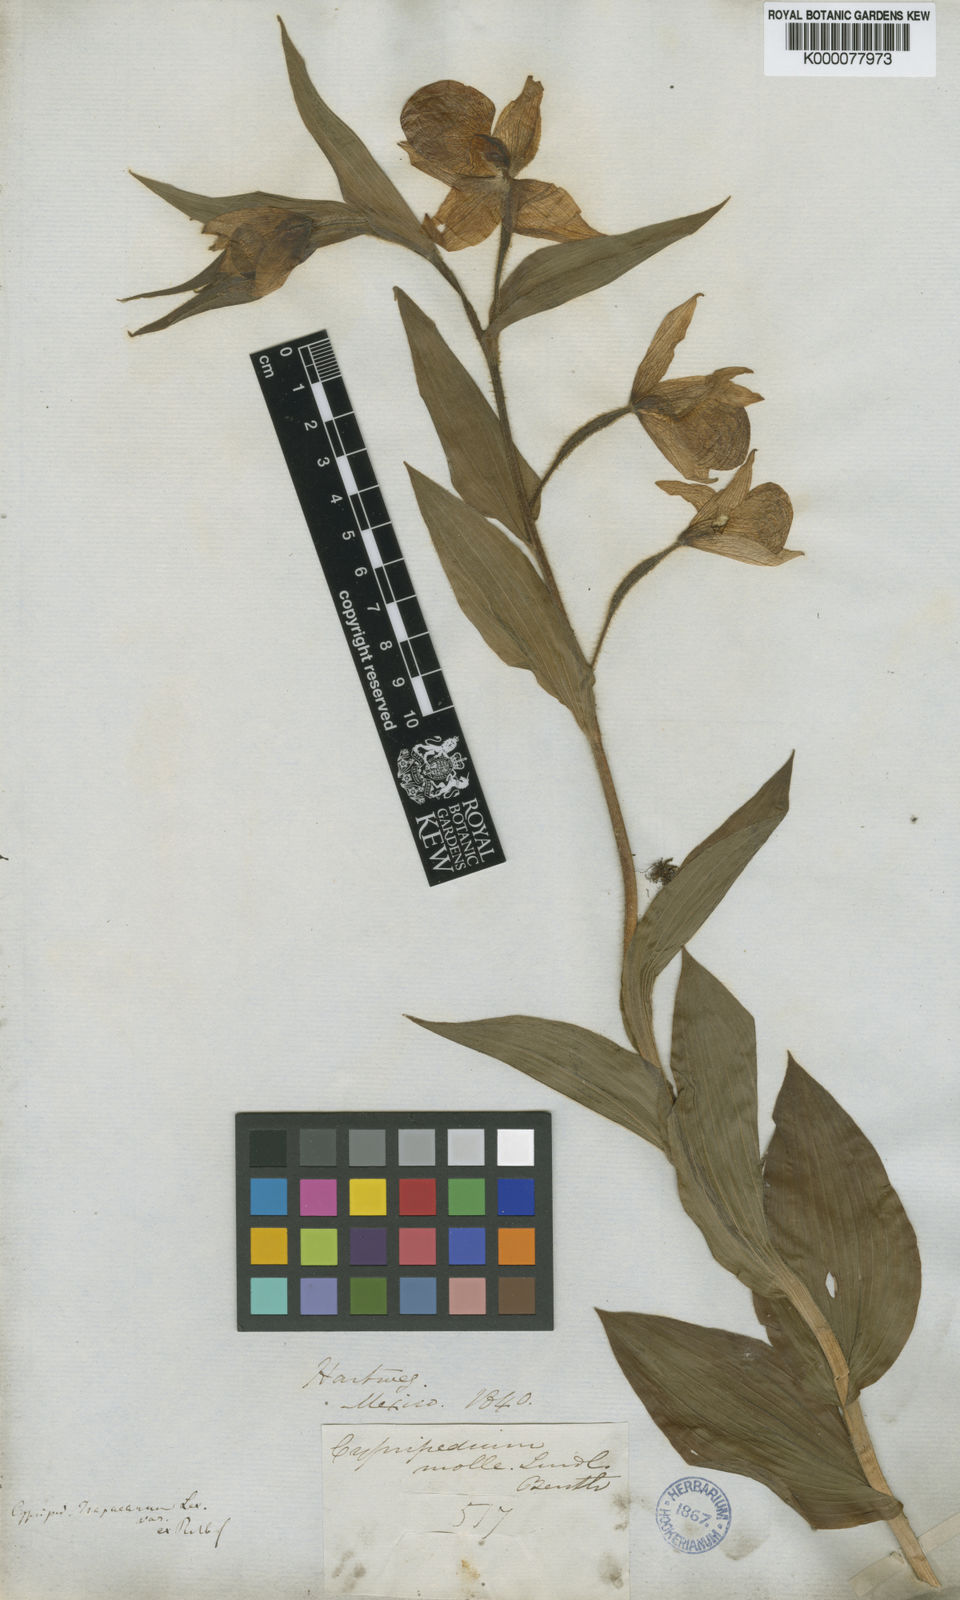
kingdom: Plantae
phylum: Tracheophyta
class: Liliopsida
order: Asparagales
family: Orchidaceae
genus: Cypripedium
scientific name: Cypripedium molle
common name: Soft cypripedium
